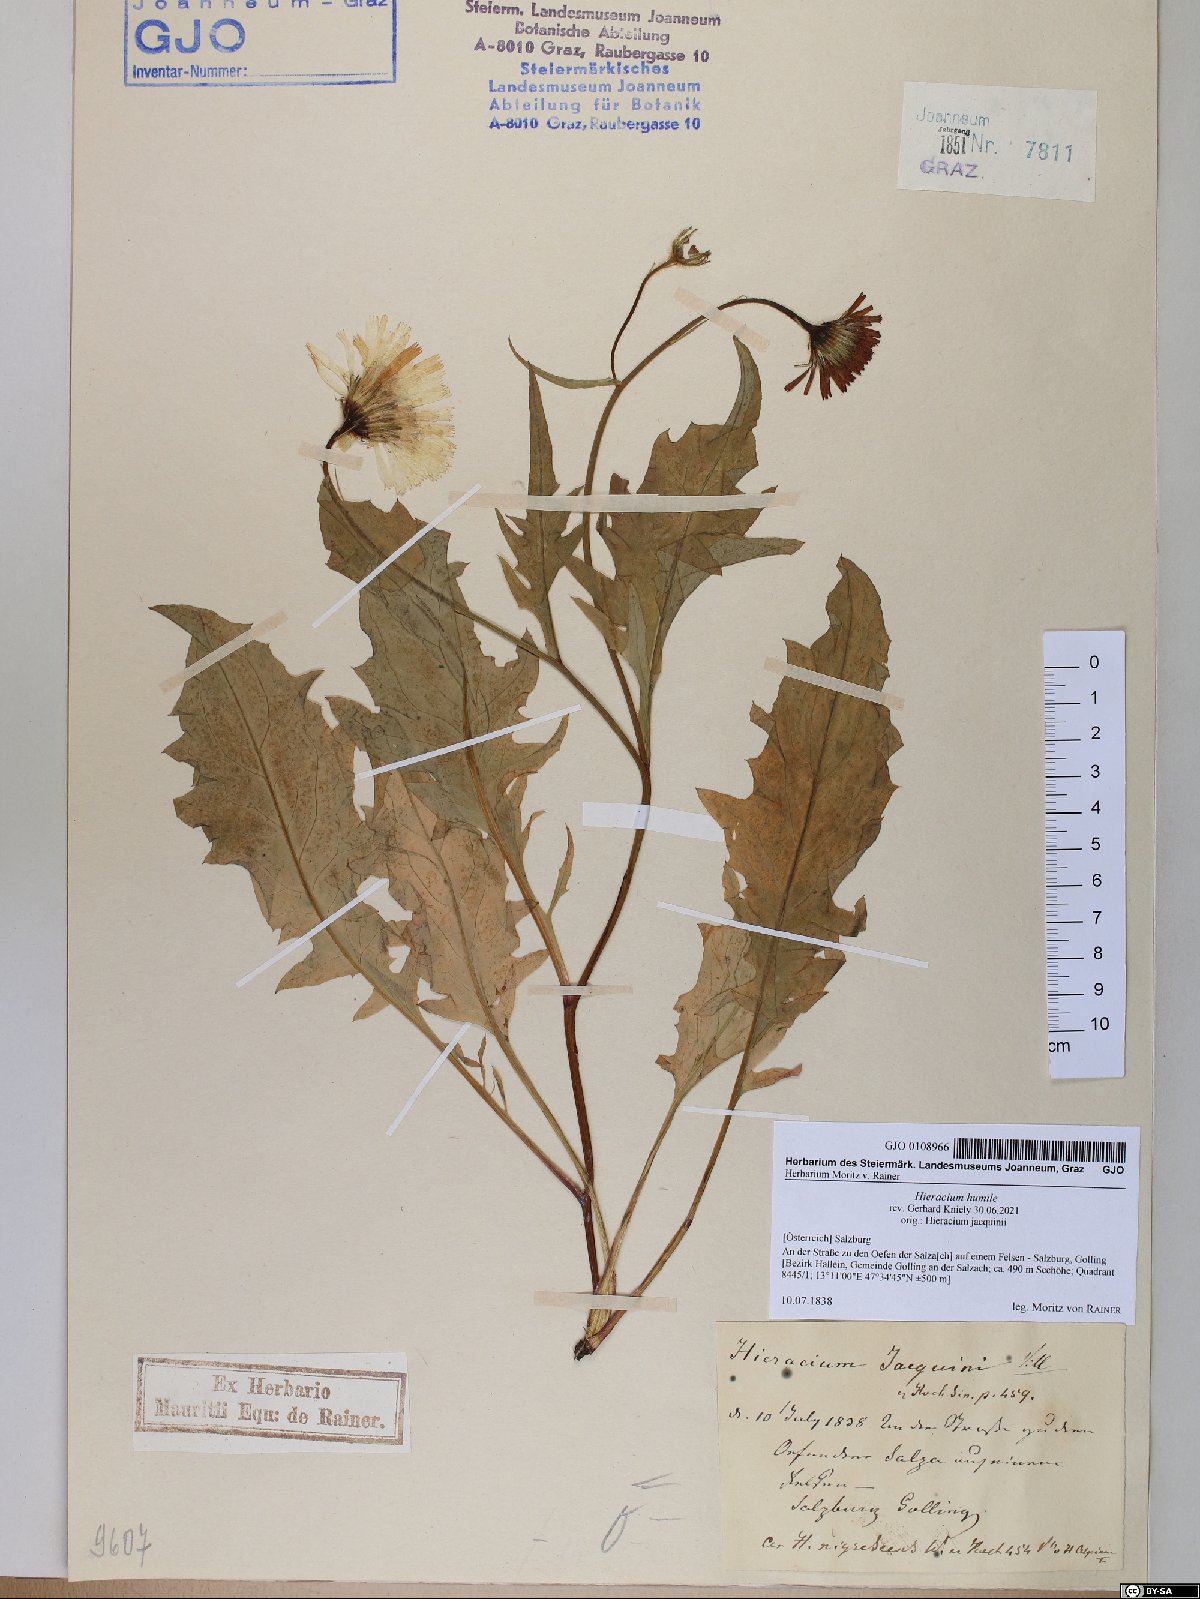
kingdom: Plantae
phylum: Tracheophyta
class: Magnoliopsida
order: Asterales
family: Asteraceae
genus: Hieracium
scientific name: Hieracium humile
